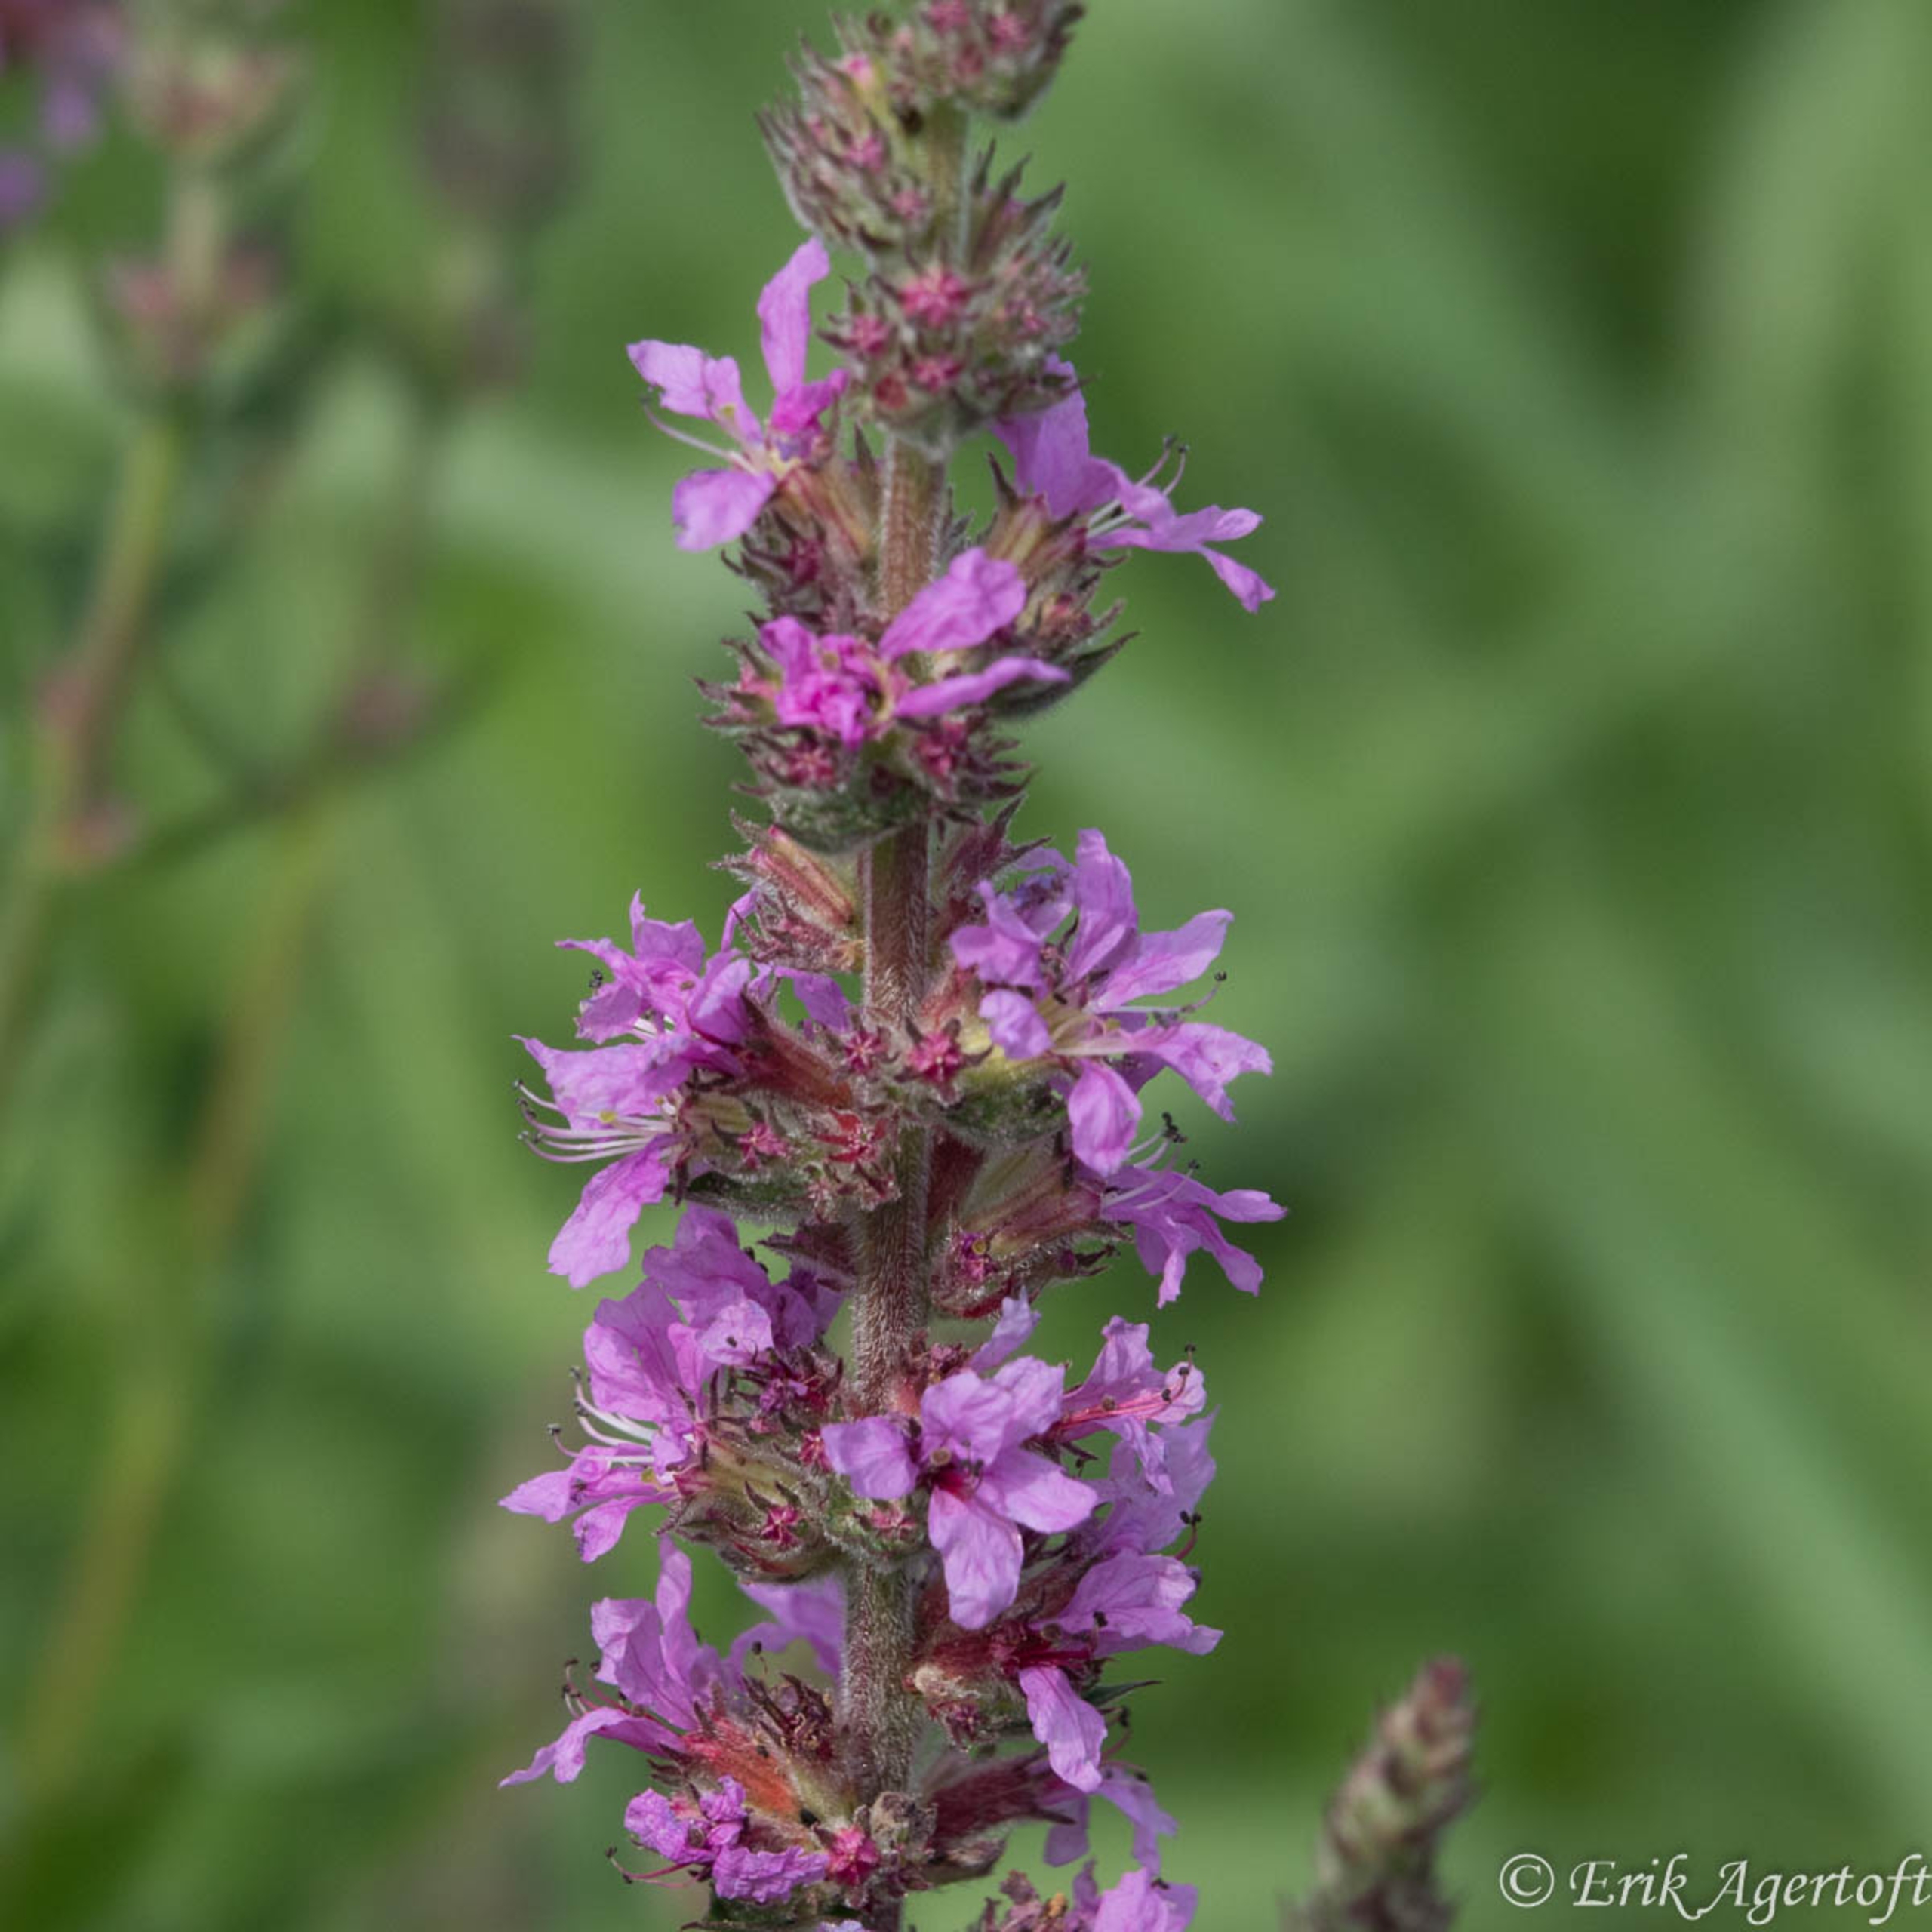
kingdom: Plantae
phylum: Tracheophyta
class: Magnoliopsida
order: Myrtales
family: Lythraceae
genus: Lythrum
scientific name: Lythrum salicaria
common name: Kattehale
